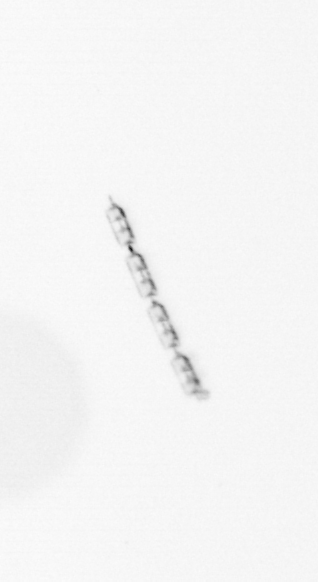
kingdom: Chromista
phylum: Ochrophyta
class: Bacillariophyceae
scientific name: Bacillariophyceae
